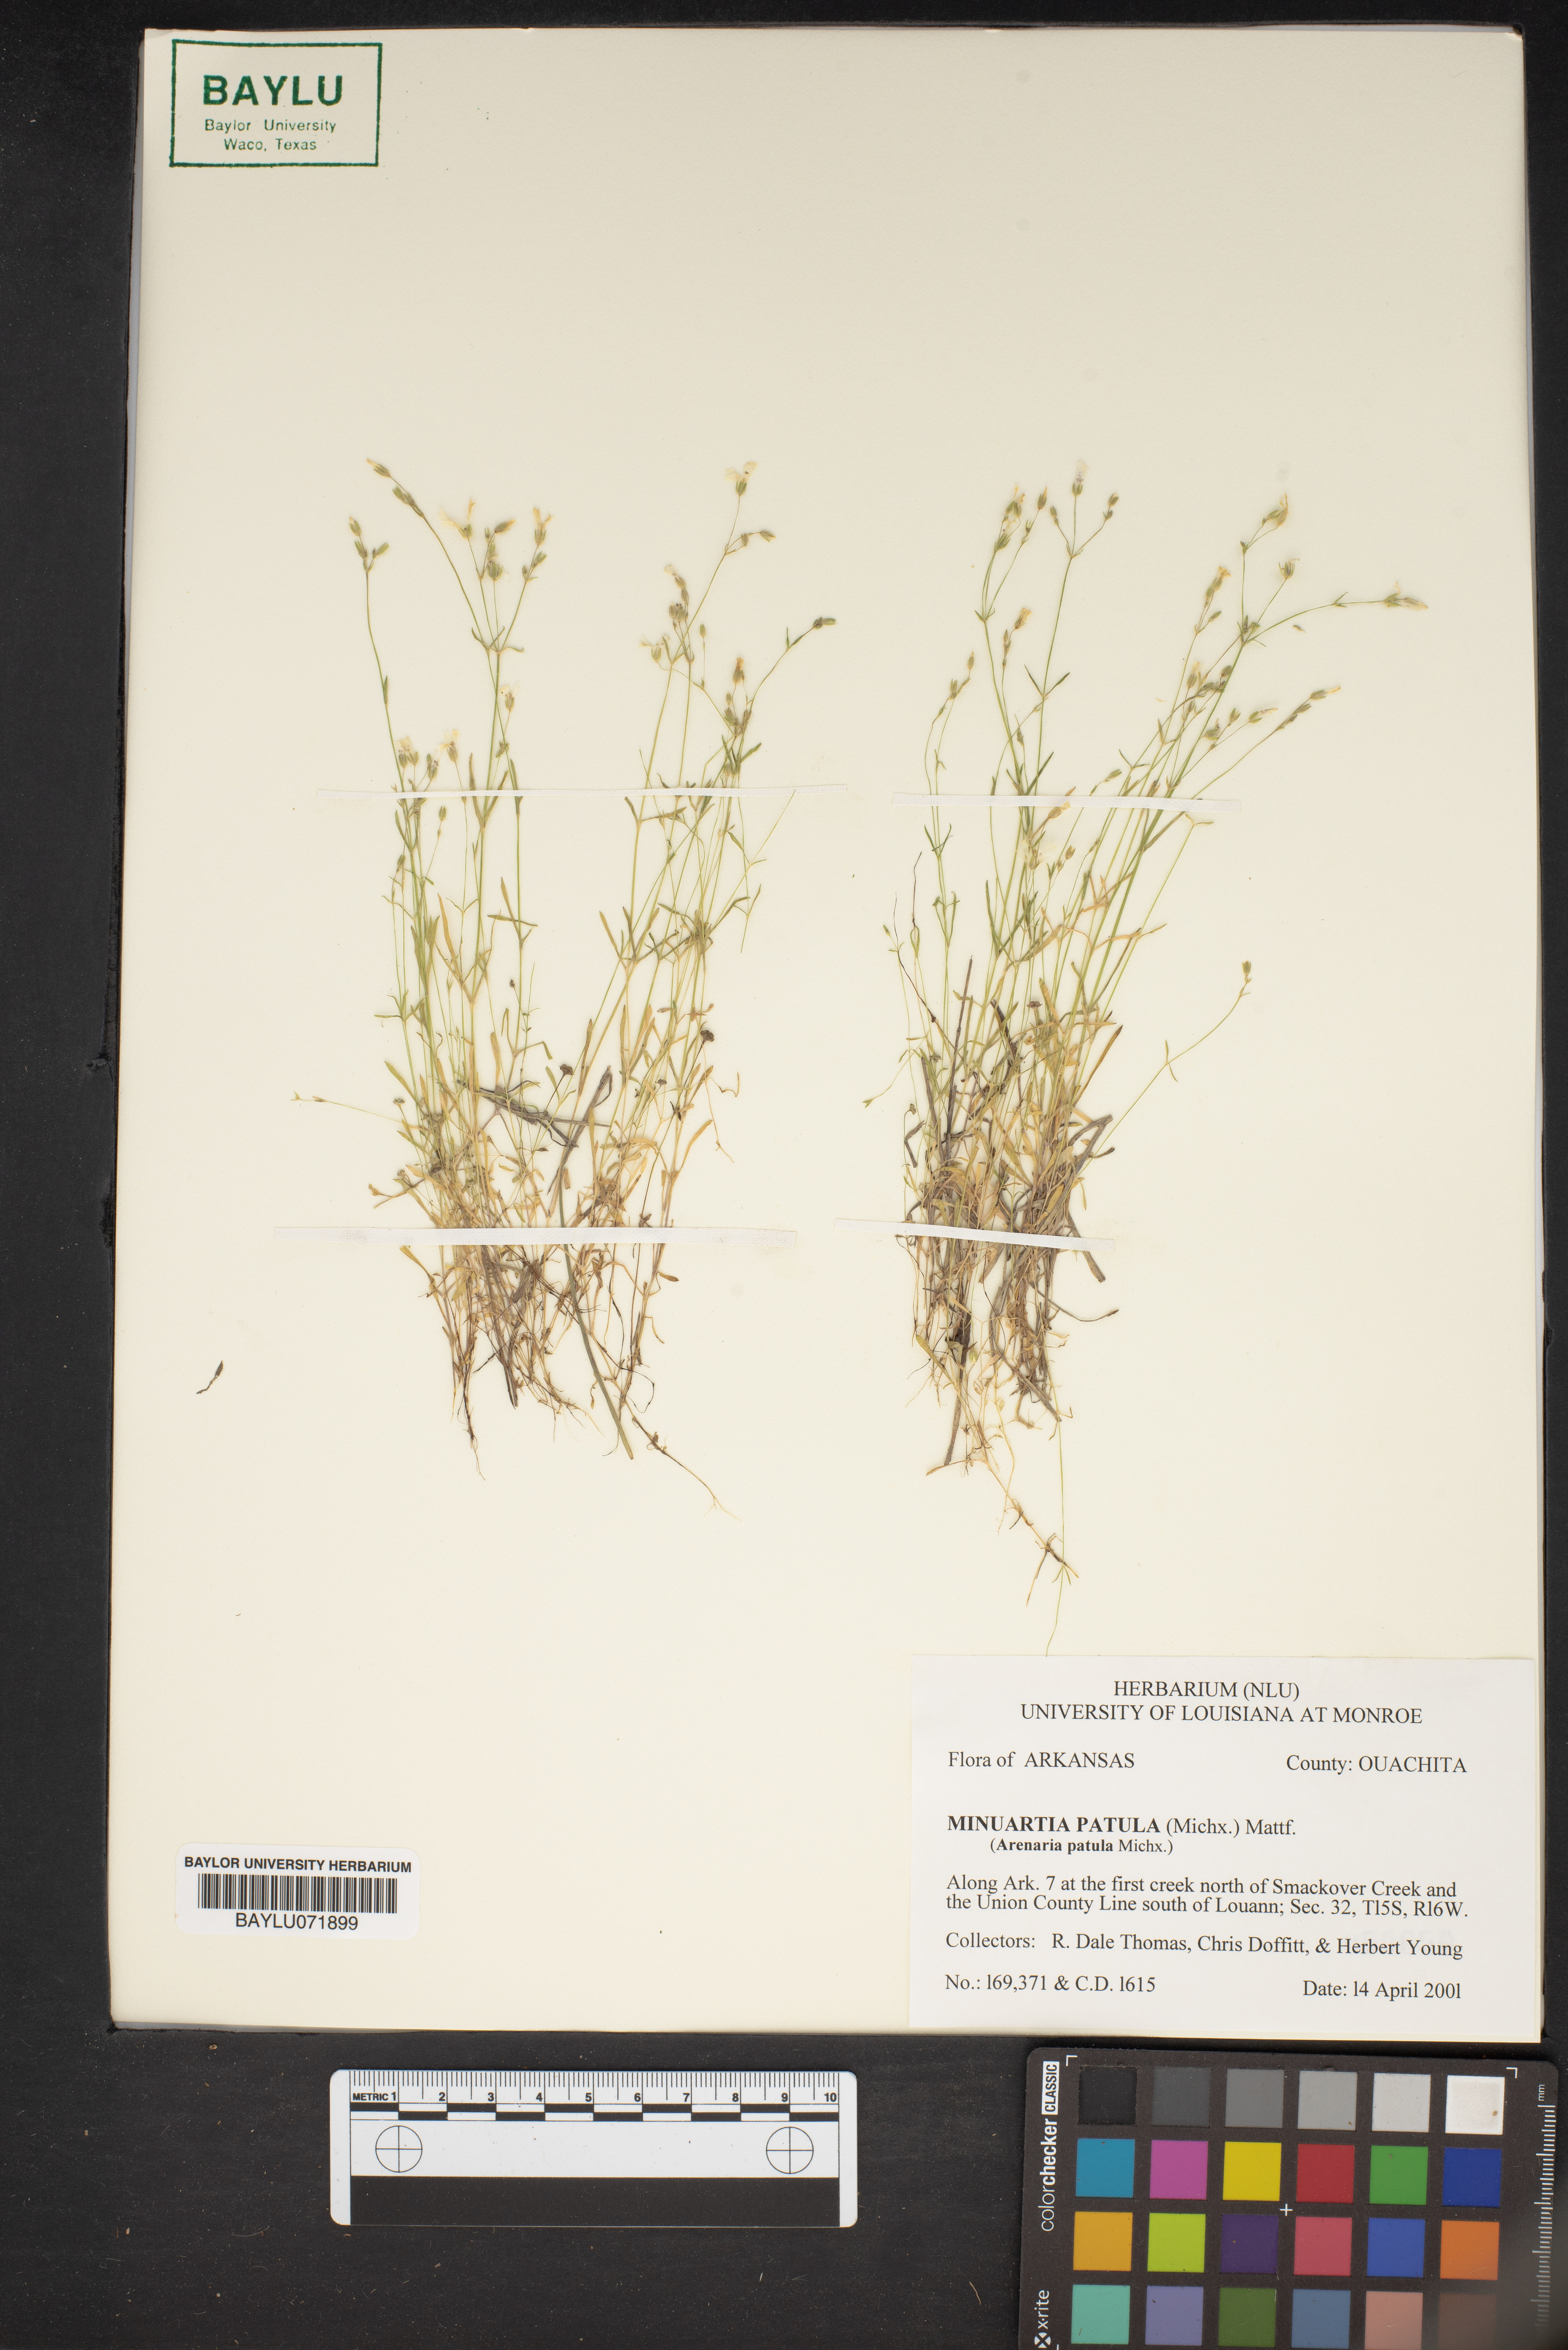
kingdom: Plantae
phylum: Tracheophyta
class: Magnoliopsida
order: Caryophyllales
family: Caryophyllaceae
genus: Mononeuria
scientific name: Mononeuria patula
